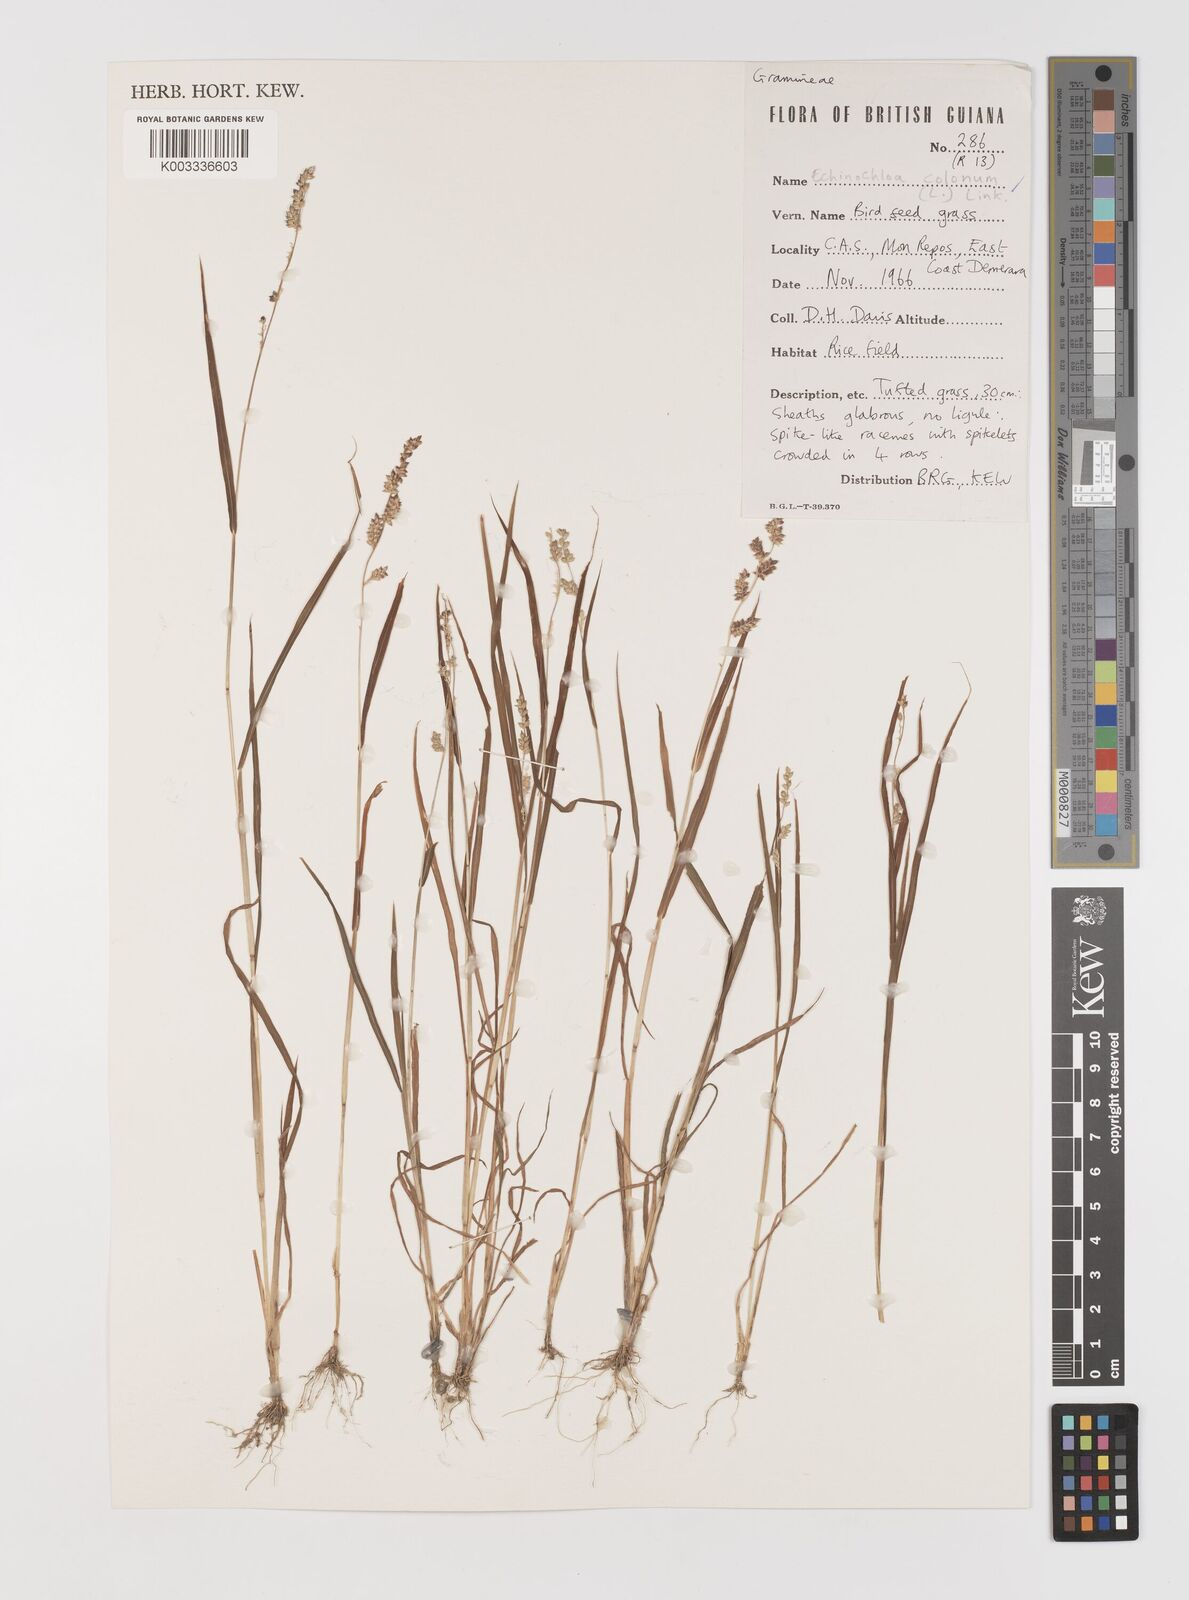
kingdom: Plantae
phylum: Tracheophyta
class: Liliopsida
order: Poales
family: Poaceae
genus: Echinochloa
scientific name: Echinochloa colonum
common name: Jungle rice
